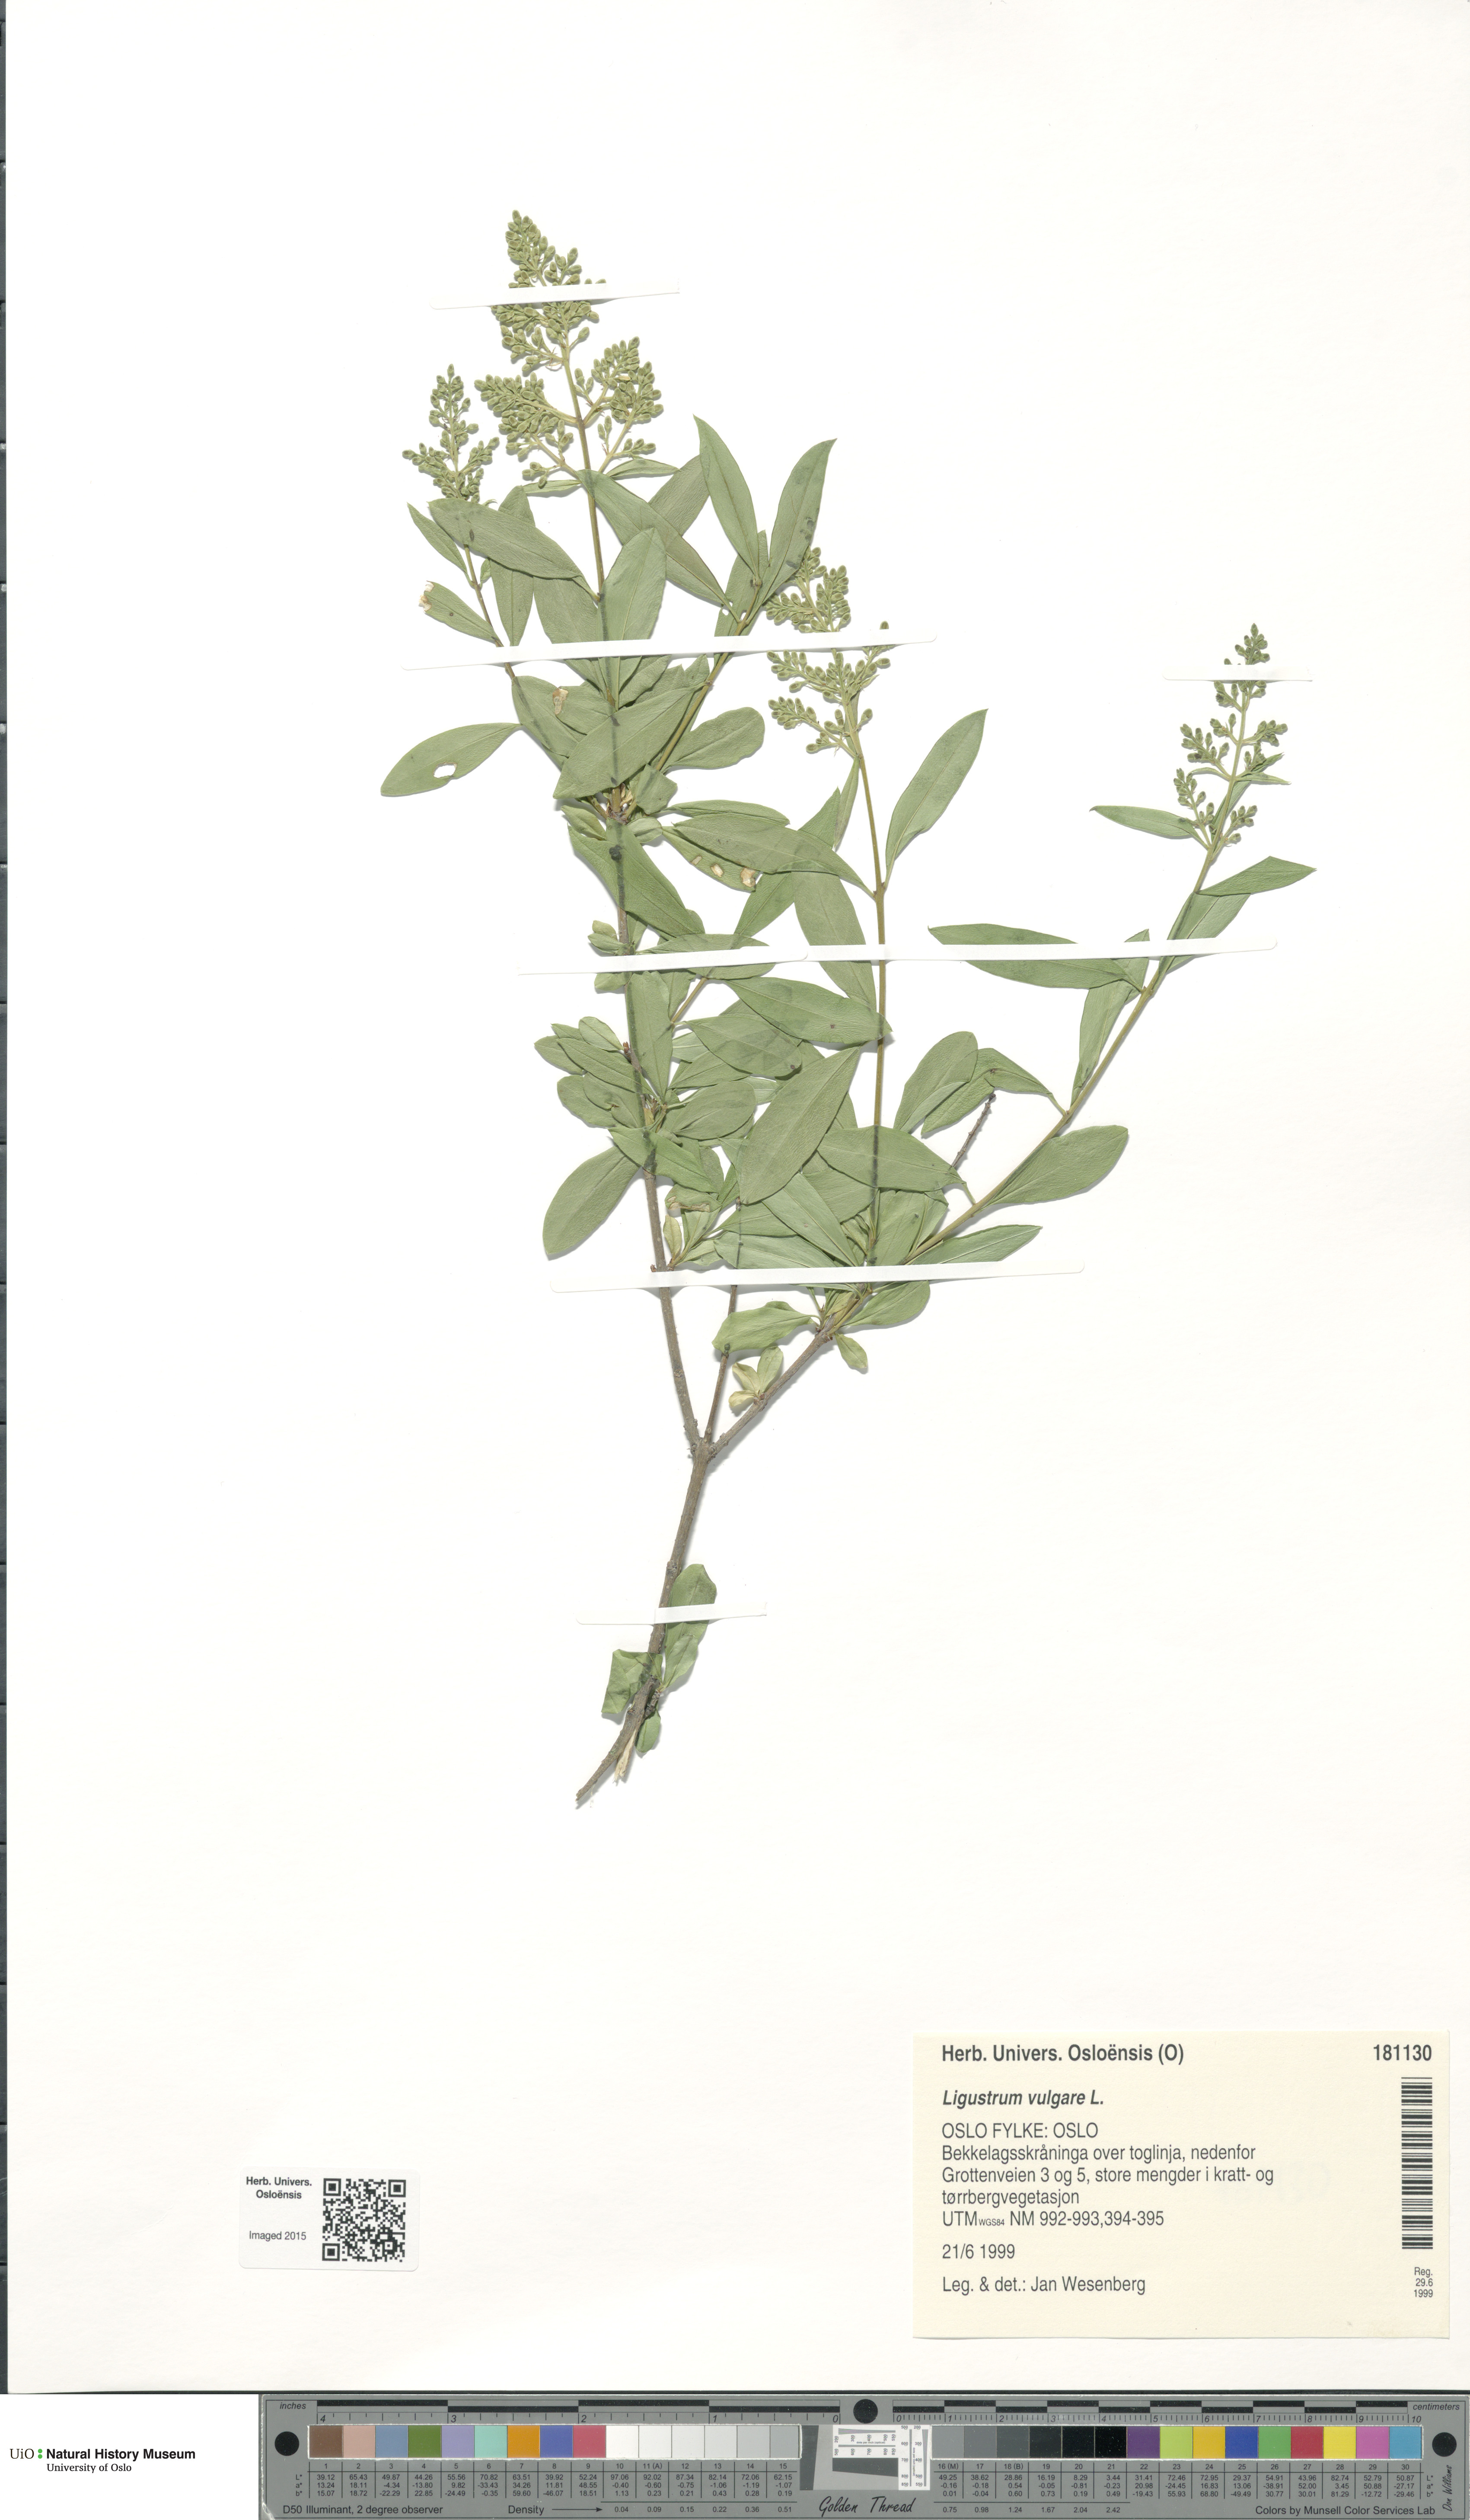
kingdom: Plantae
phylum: Tracheophyta
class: Magnoliopsida
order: Lamiales
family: Oleaceae
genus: Ligustrum
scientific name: Ligustrum vulgare
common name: Wild privet
